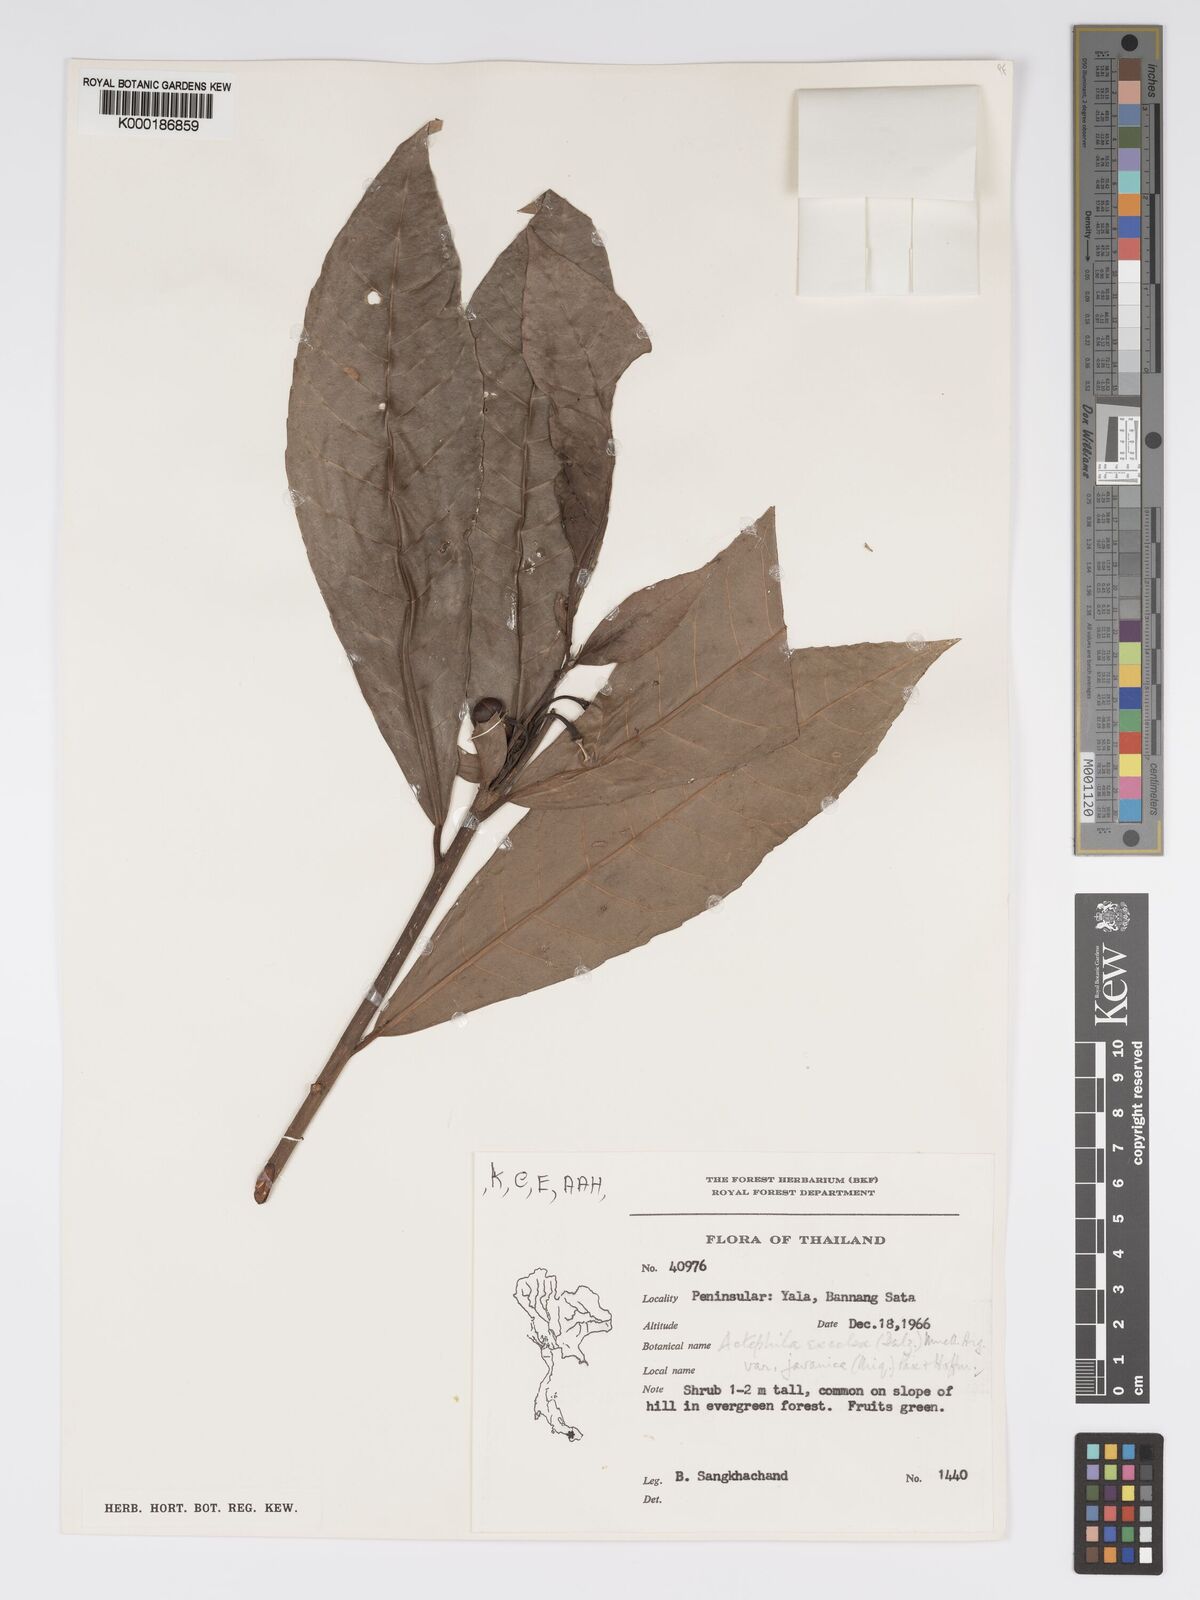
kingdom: Plantae
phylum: Tracheophyta
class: Magnoliopsida
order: Malpighiales
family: Phyllanthaceae
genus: Actephila
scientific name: Actephila
